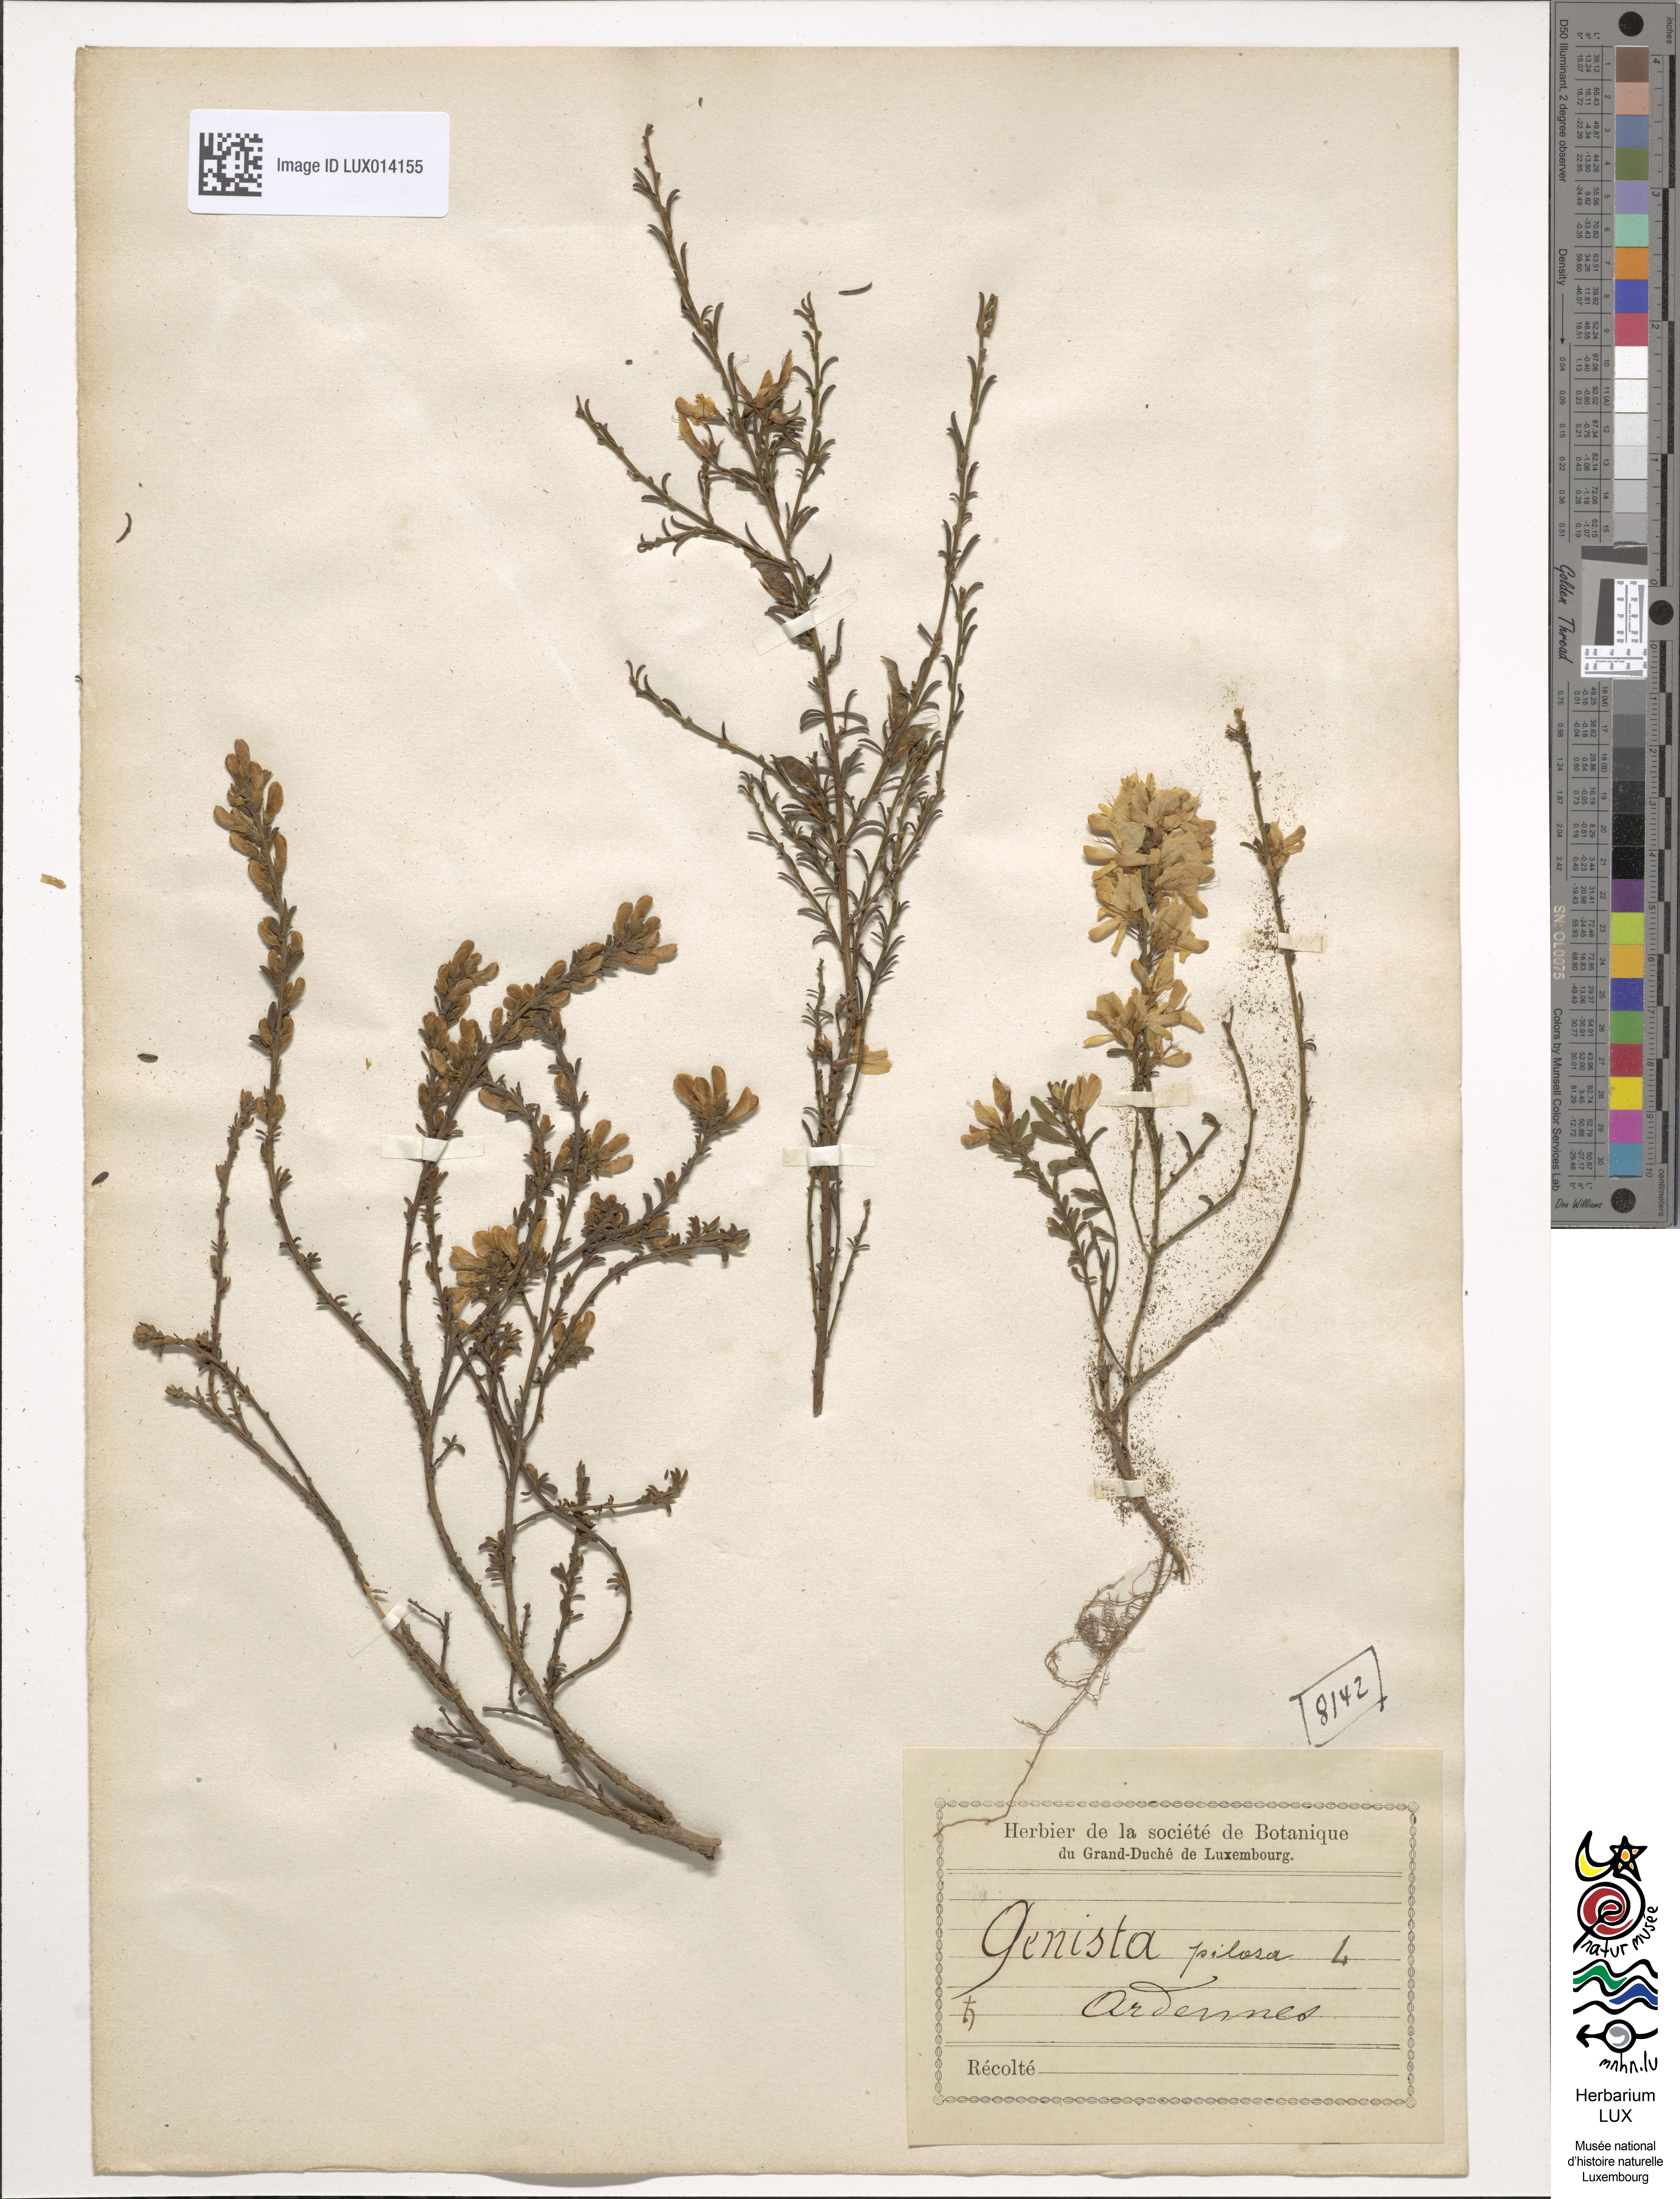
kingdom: Plantae
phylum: Tracheophyta
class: Magnoliopsida
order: Fabales
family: Fabaceae
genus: Genista
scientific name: Genista pilosa
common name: Hairy greenweed
